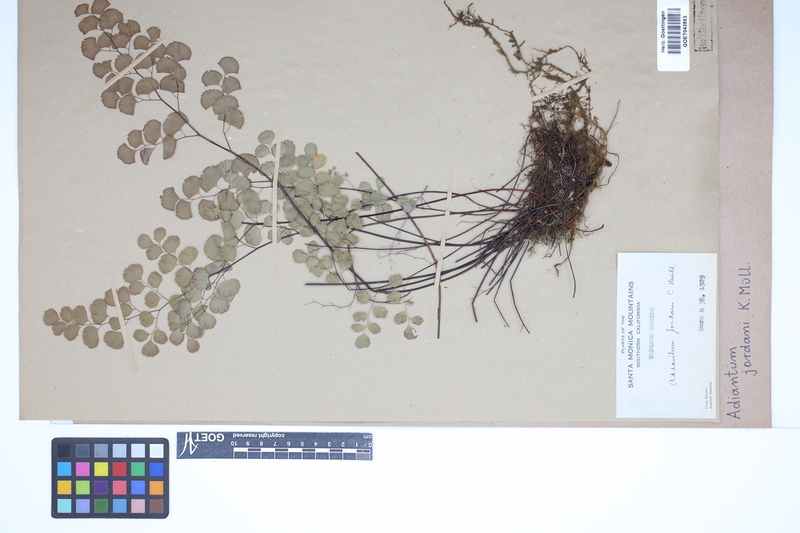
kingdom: Plantae
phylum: Tracheophyta
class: Polypodiopsida
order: Polypodiales
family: Pteridaceae
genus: Adiantum
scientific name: Adiantum jordanii
